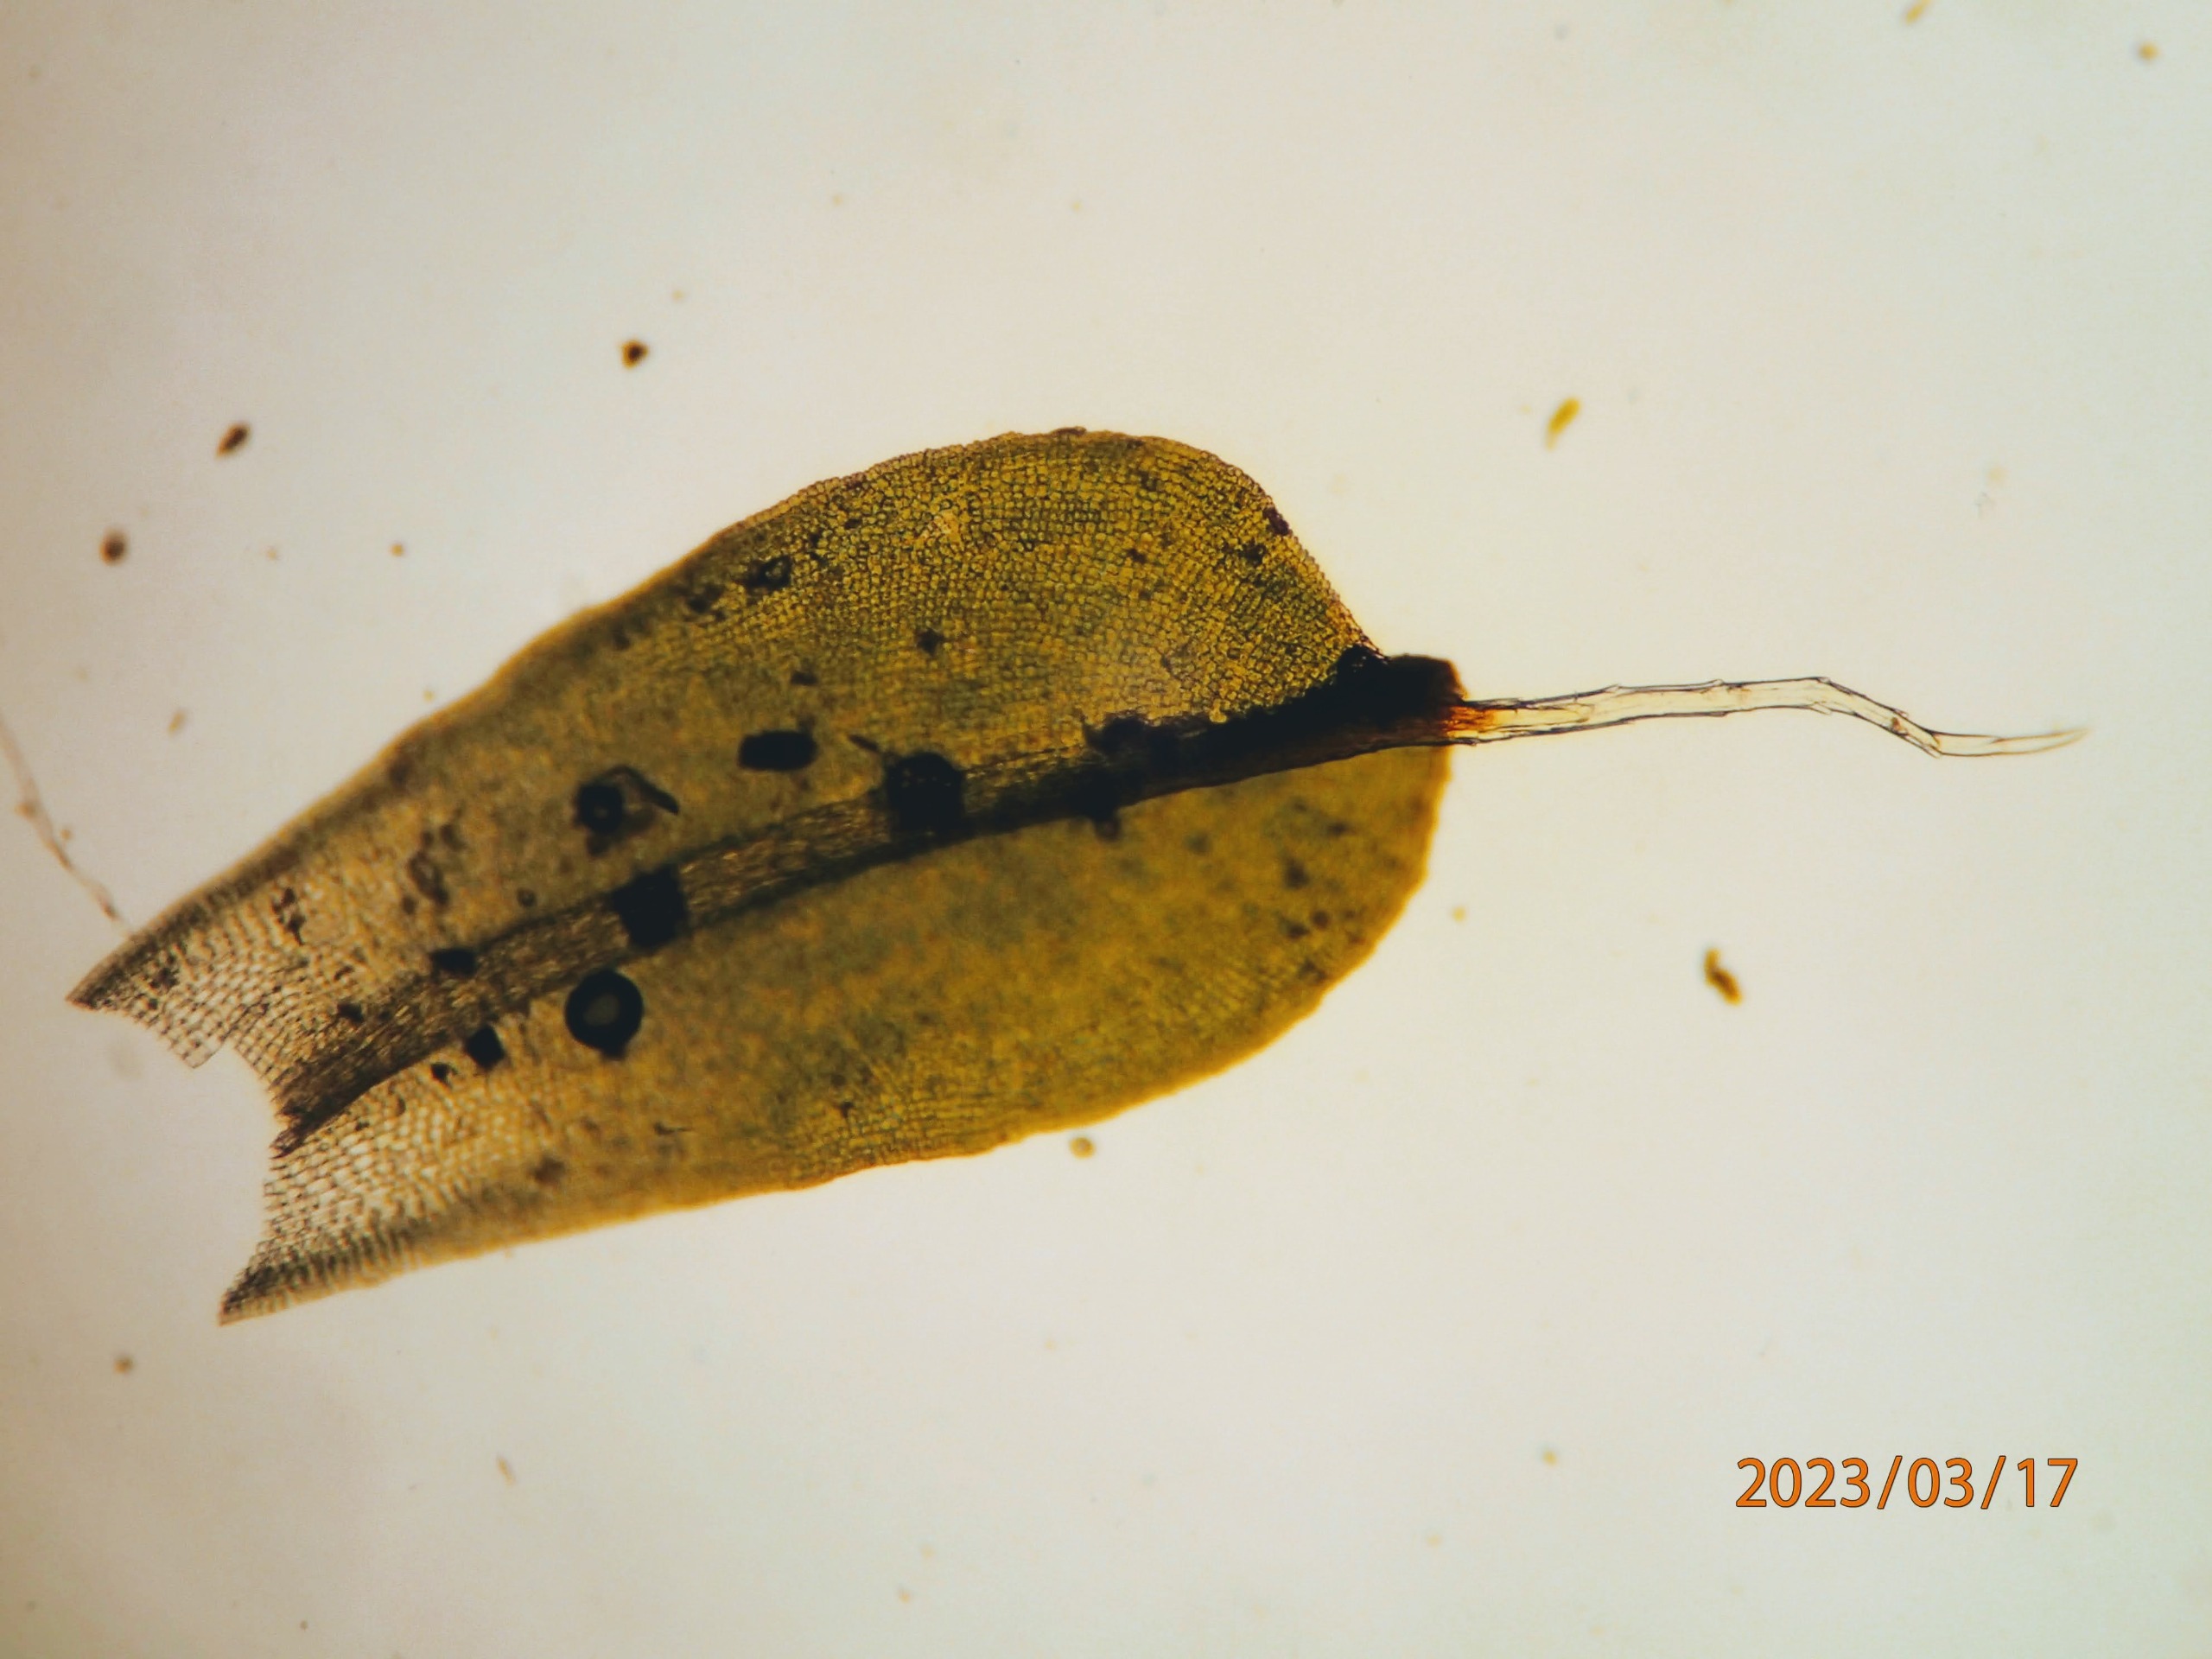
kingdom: Plantae
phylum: Bryophyta
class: Bryopsida
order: Pottiales
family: Pottiaceae
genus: Syntrichia
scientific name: Syntrichia virescens
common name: Grøn hårstjerne
